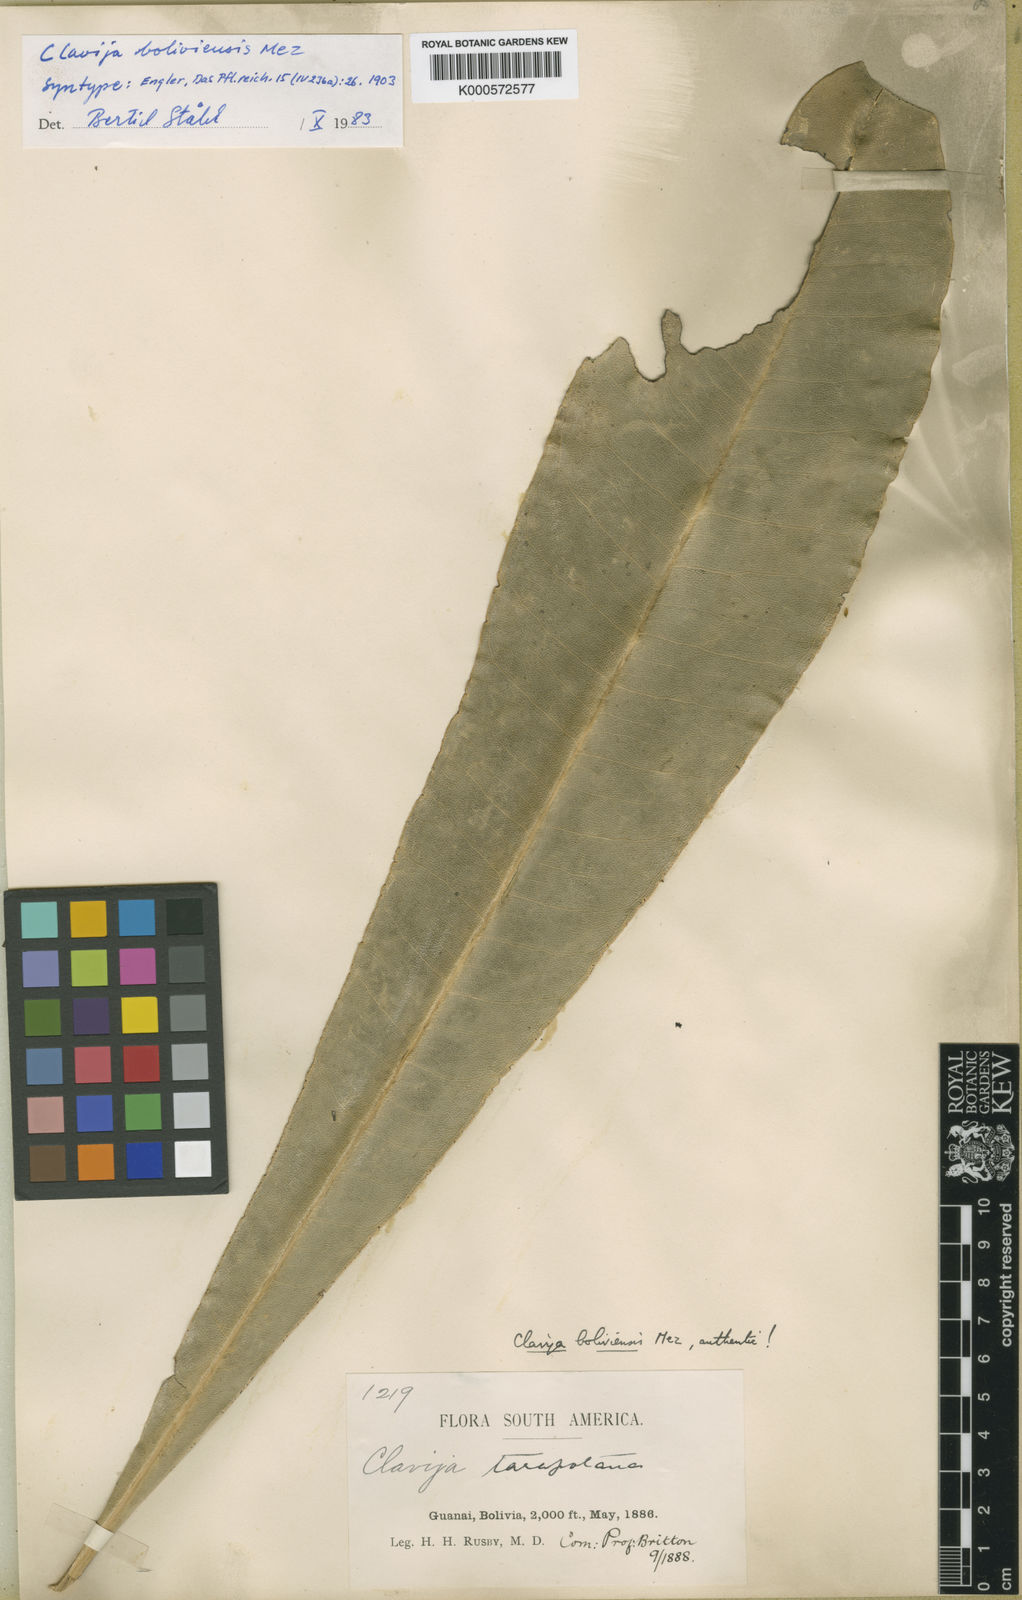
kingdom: Plantae
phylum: Tracheophyta
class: Magnoliopsida
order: Ericales
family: Primulaceae
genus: Clavija
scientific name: Clavija
